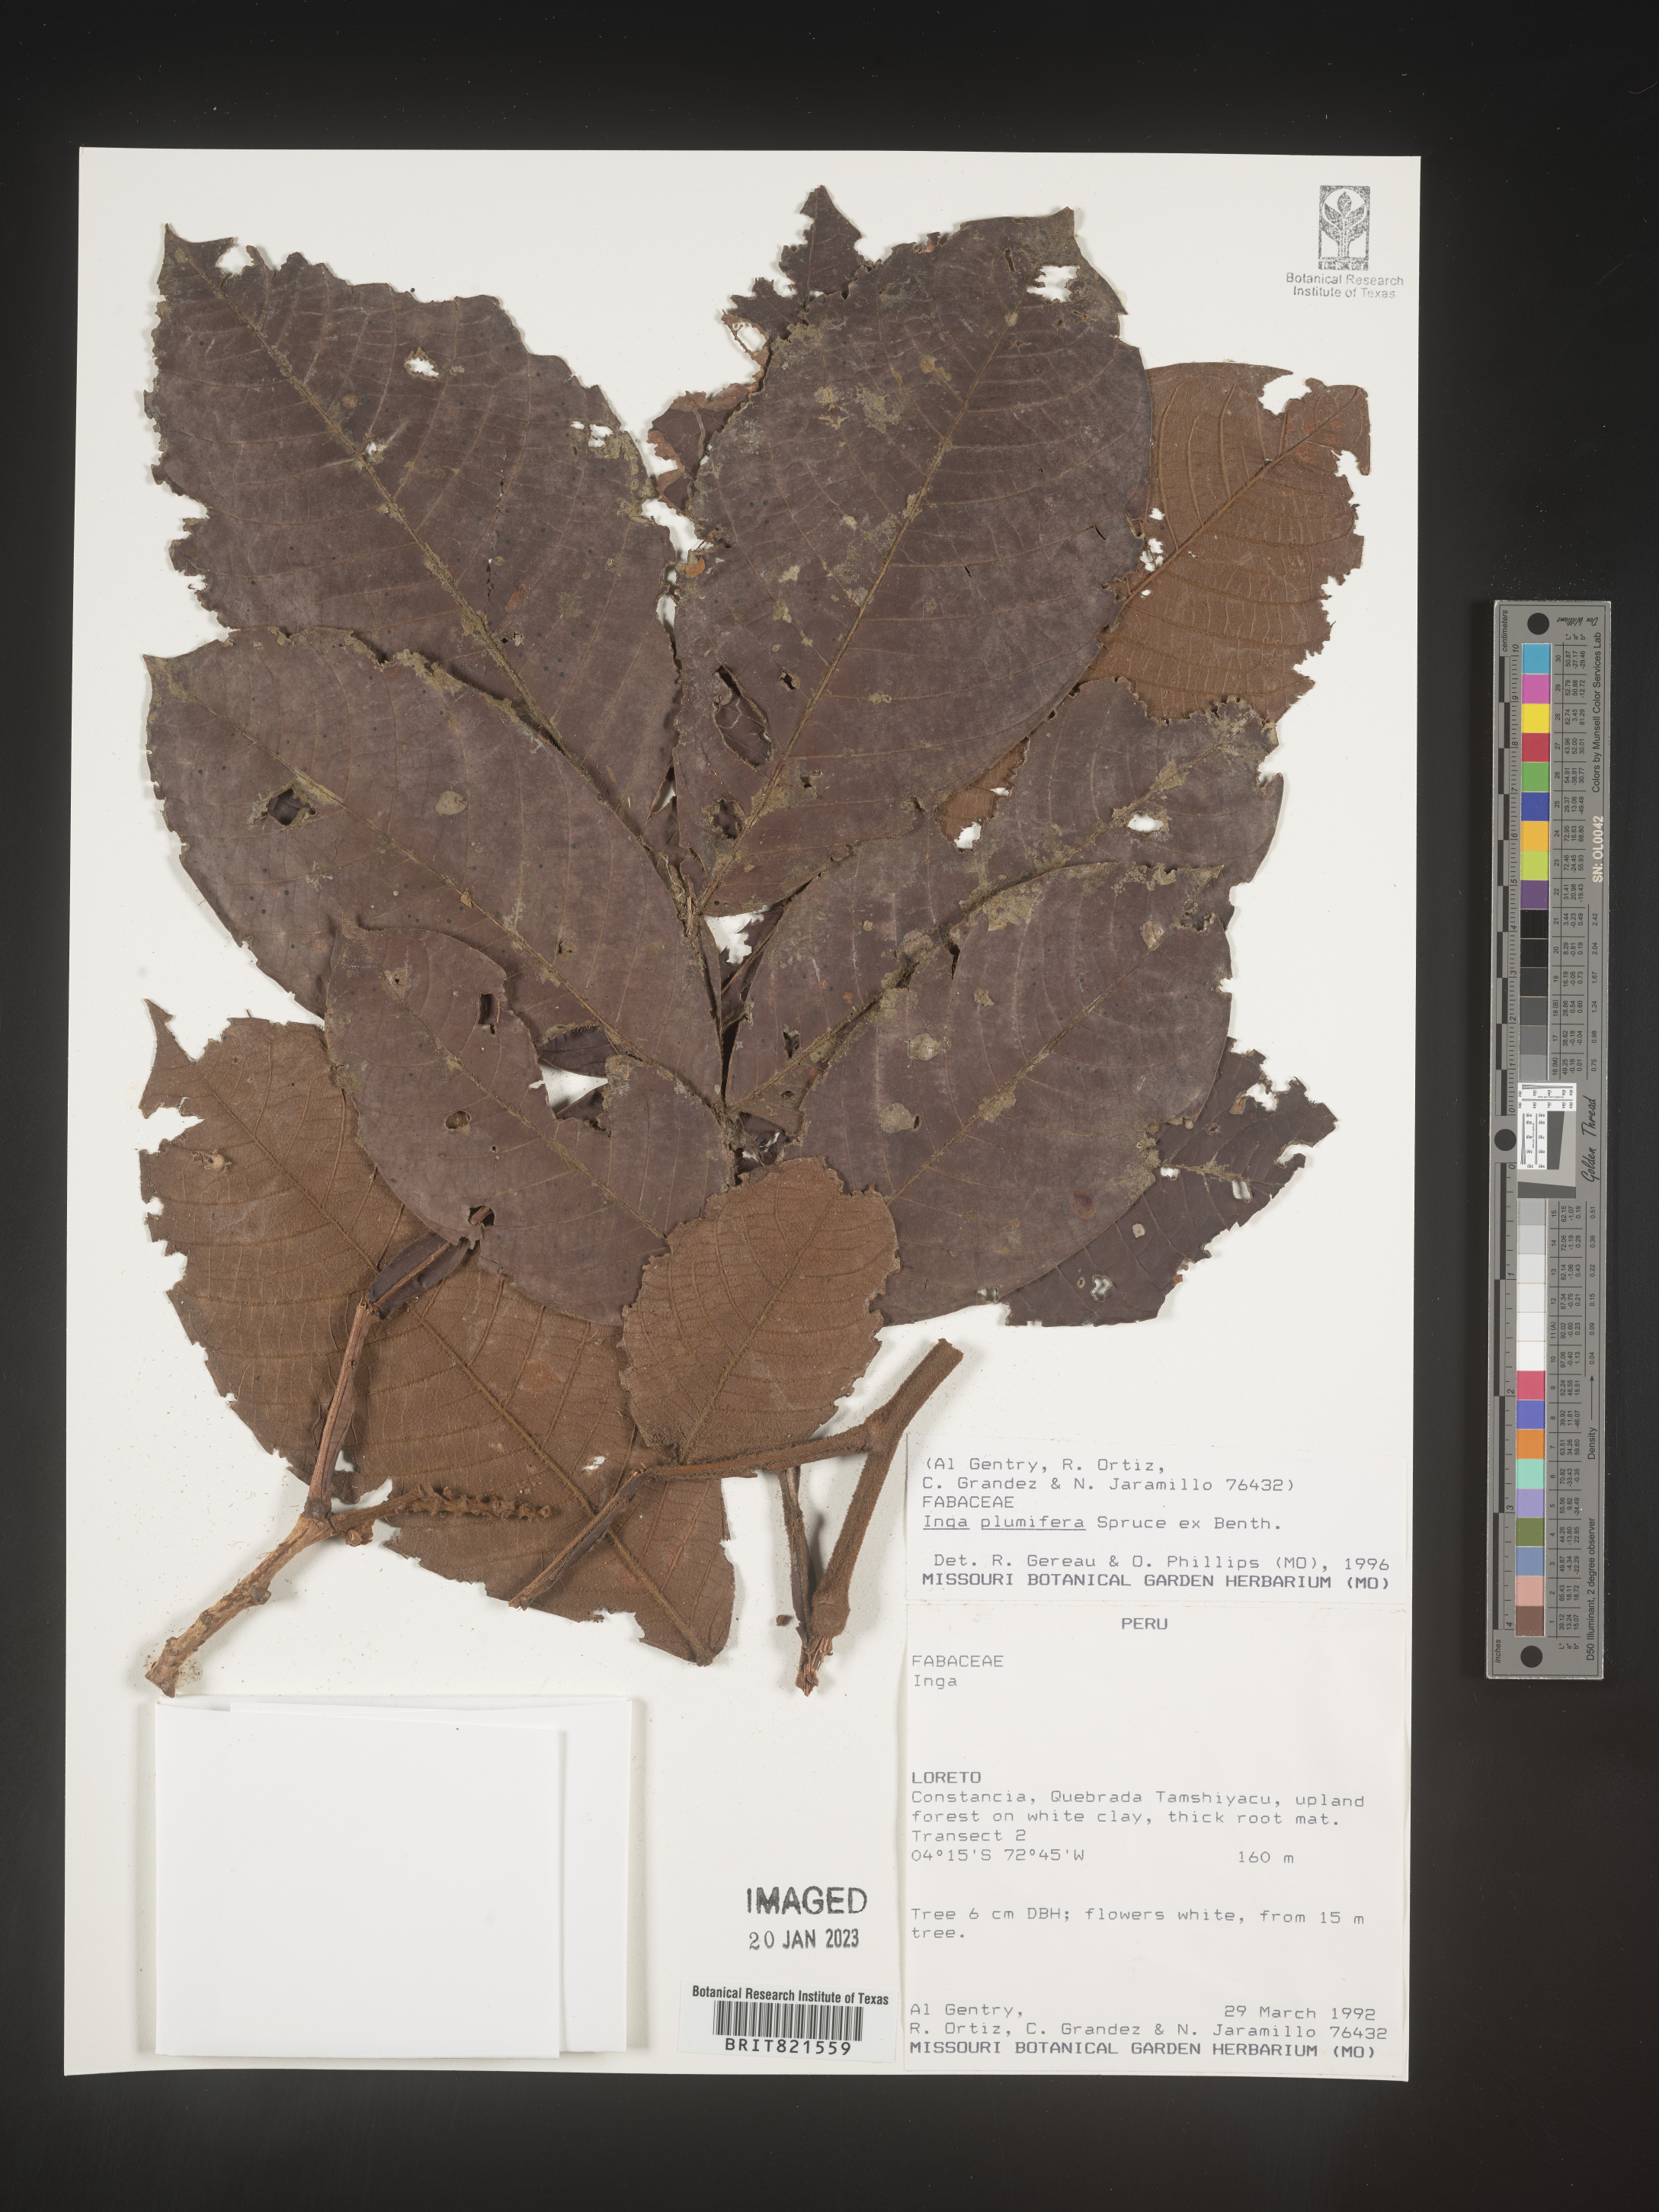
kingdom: Plantae
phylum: Tracheophyta
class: Magnoliopsida
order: Fabales
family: Fabaceae
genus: Inga
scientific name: Inga
